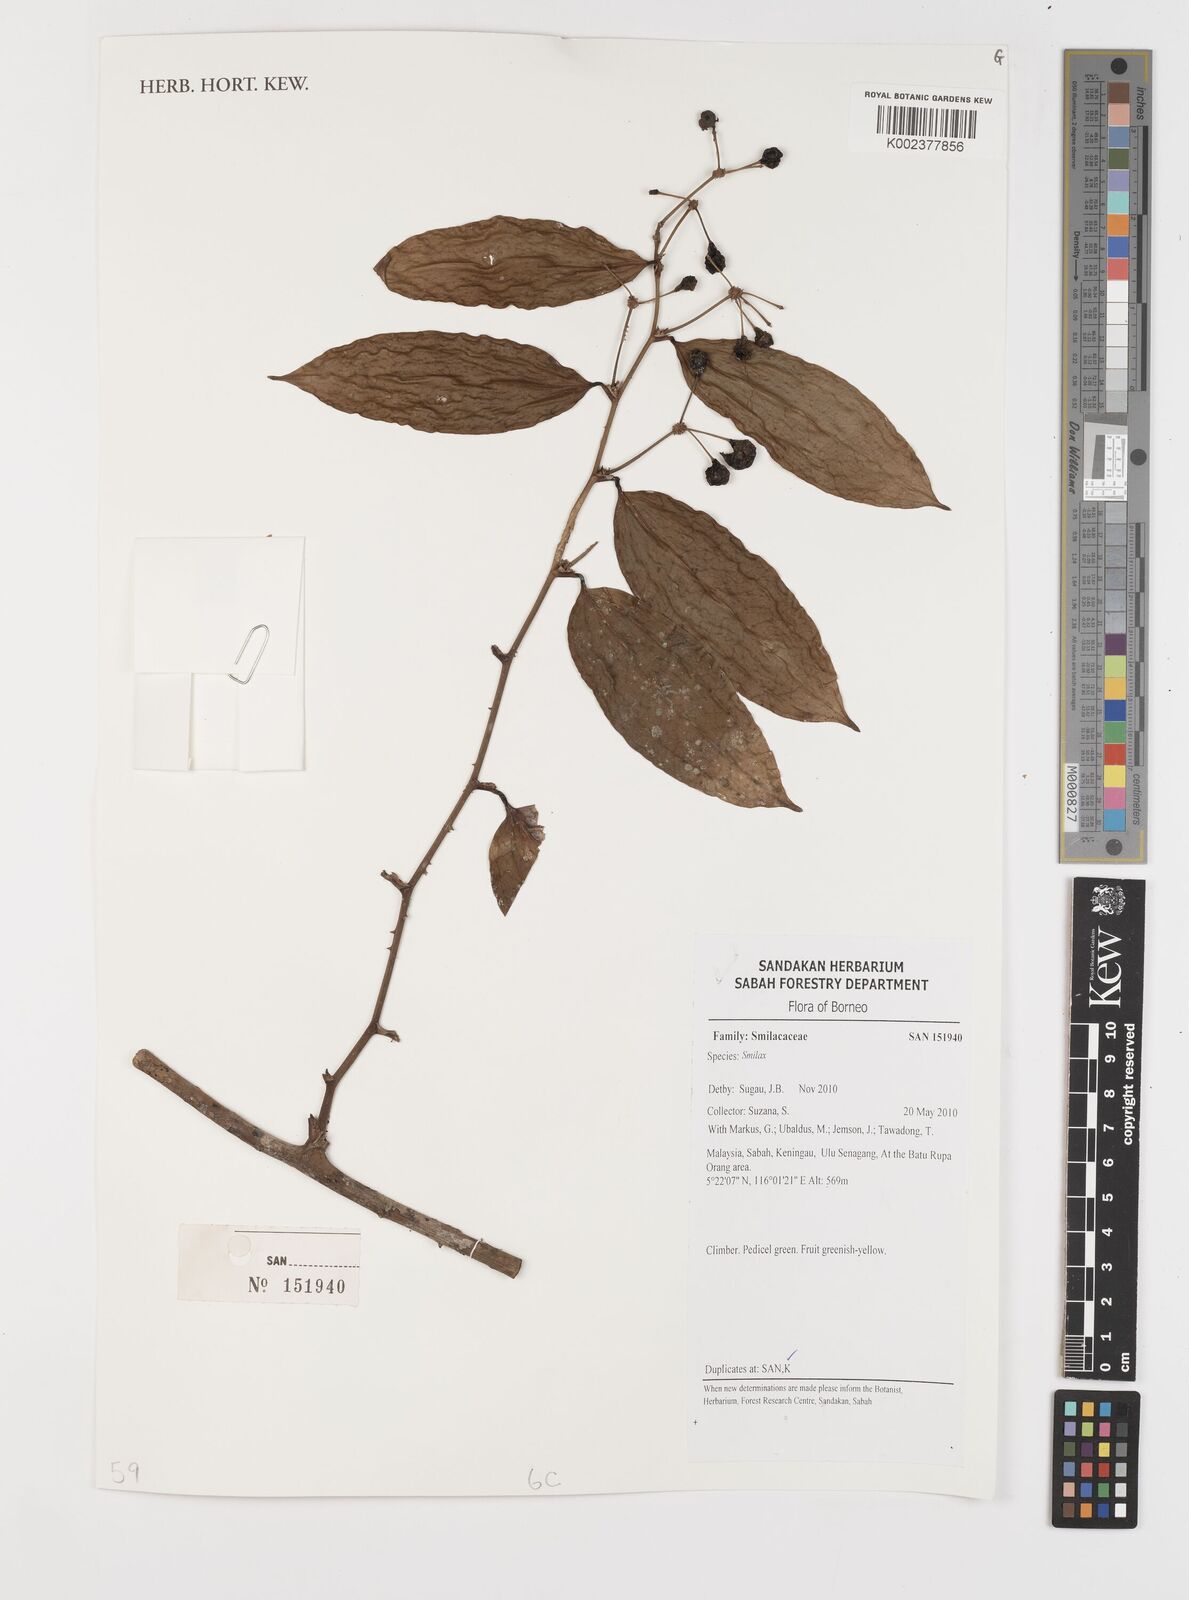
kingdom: Plantae
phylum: Tracheophyta
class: Liliopsida
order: Liliales
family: Smilacaceae
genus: Smilax
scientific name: Smilax
